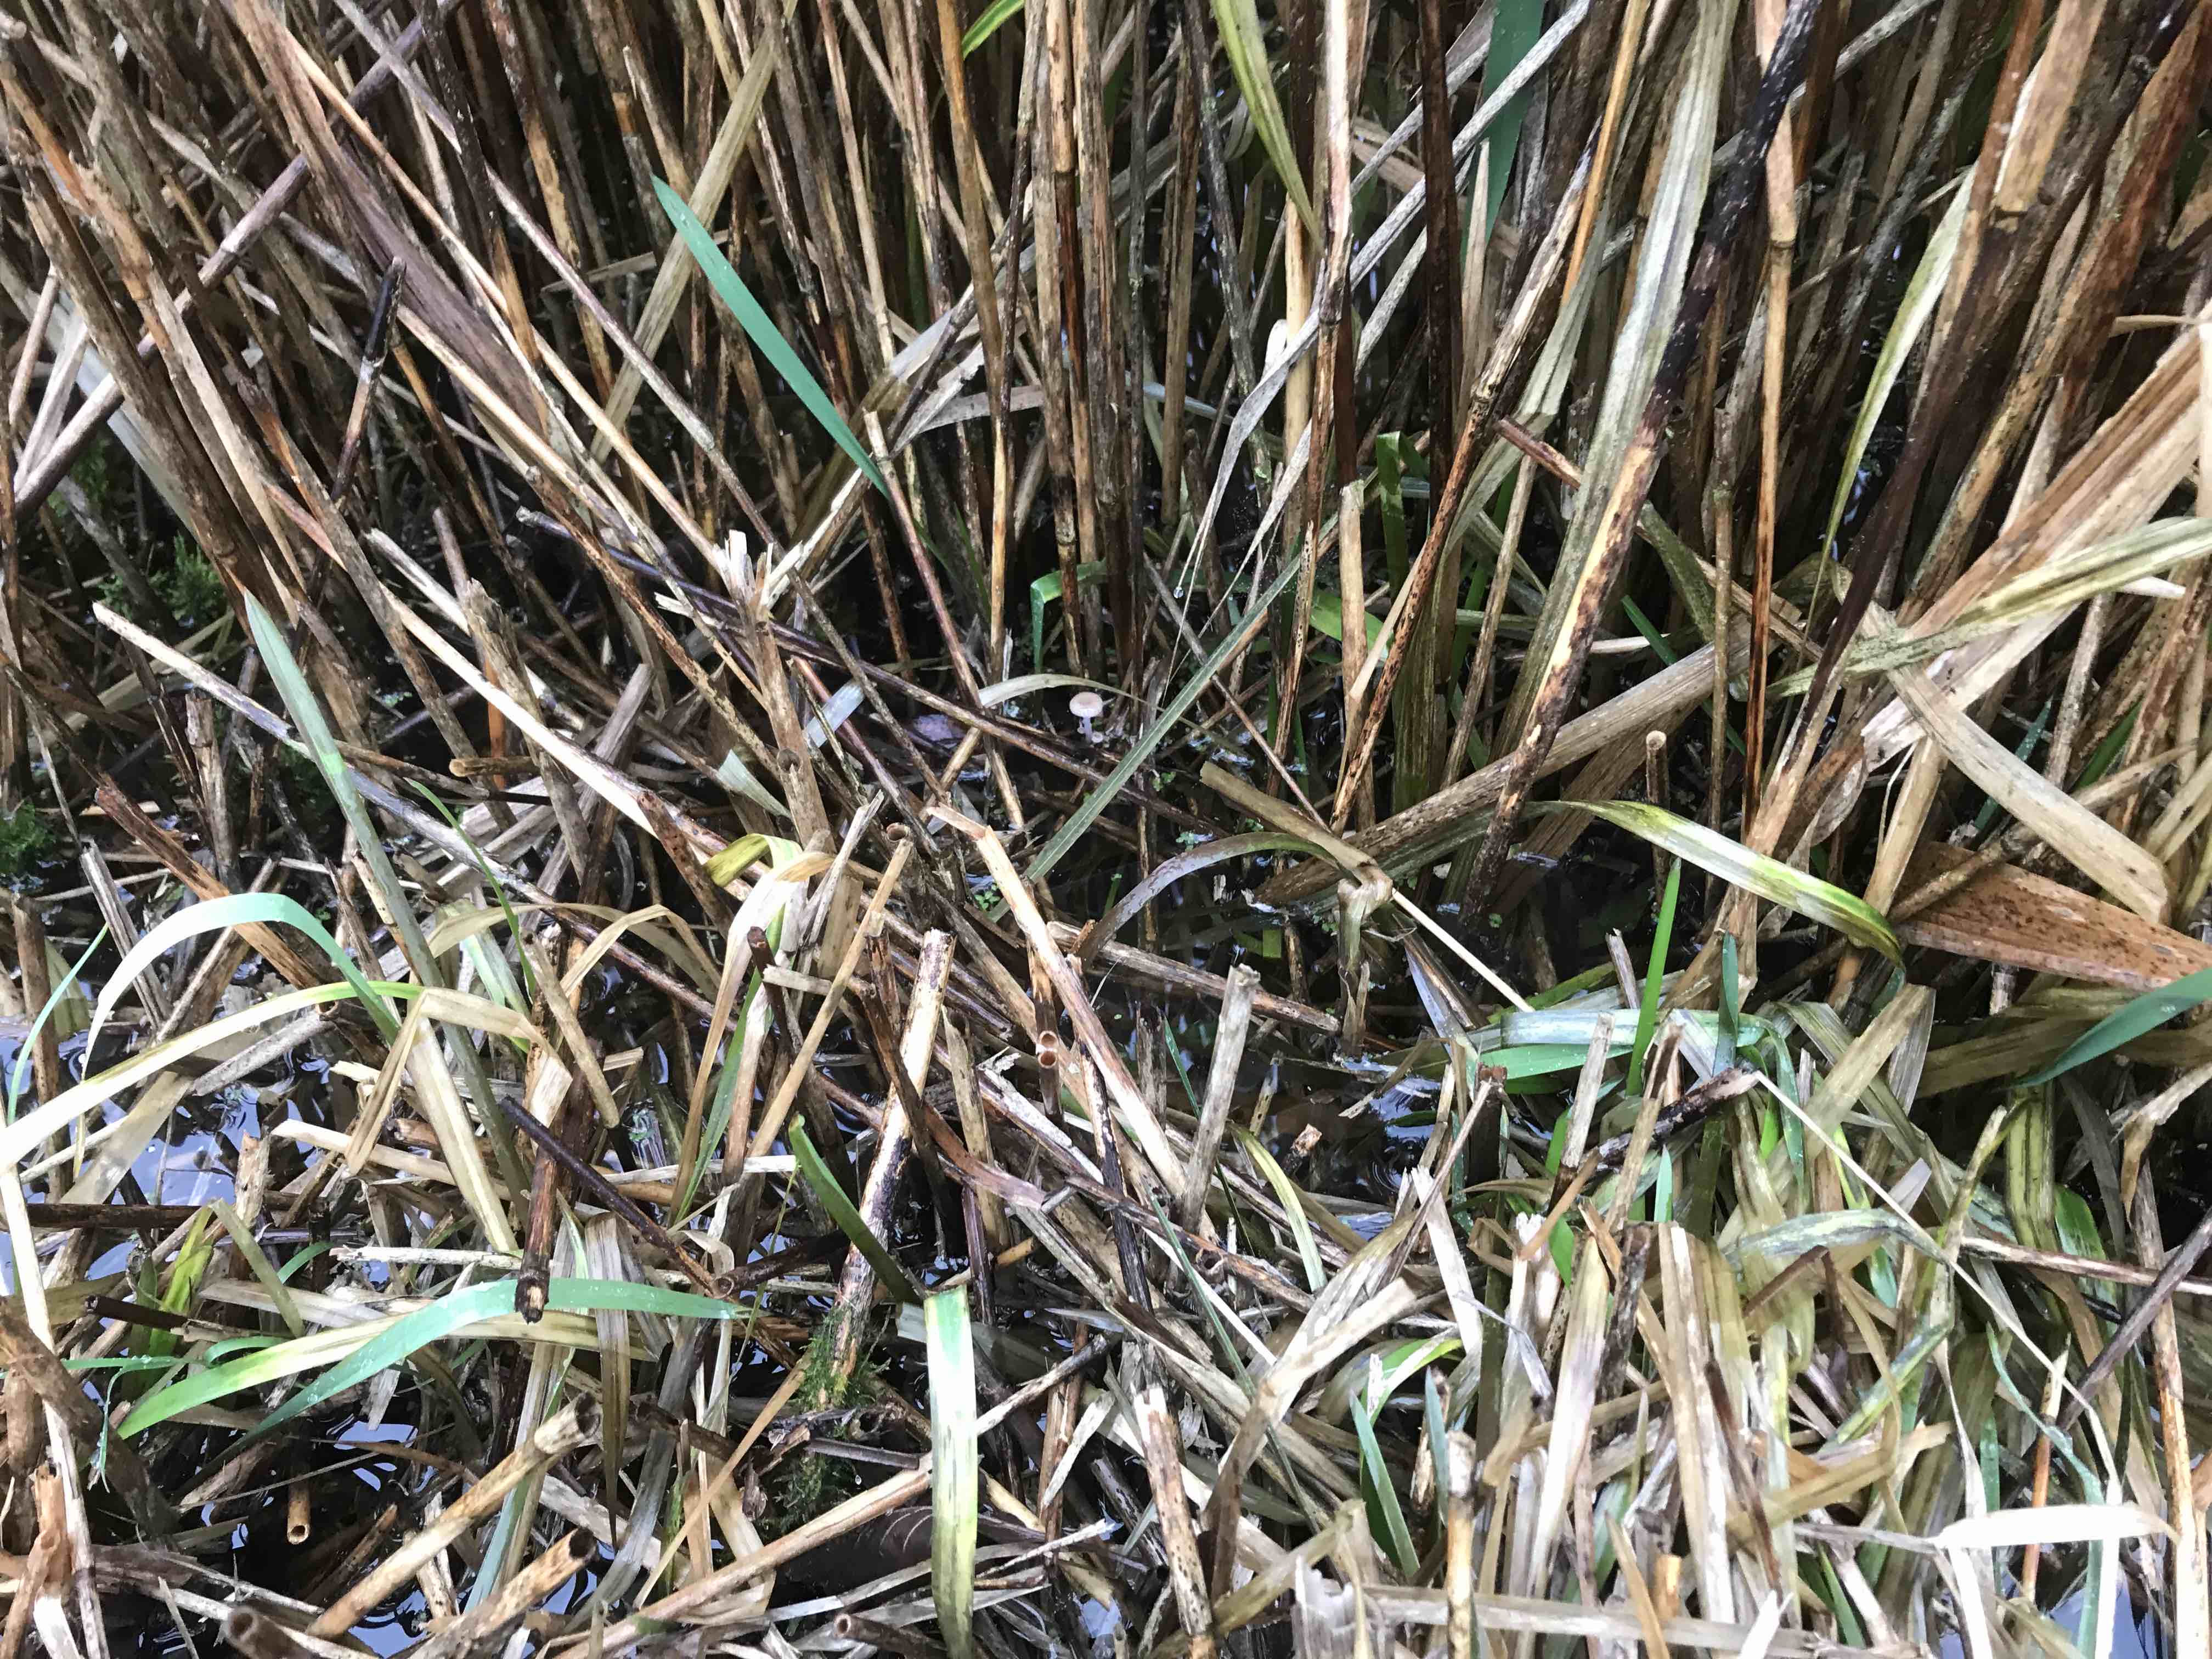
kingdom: Fungi
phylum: Basidiomycota
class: Agaricomycetes
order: Agaricales
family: Mycenaceae
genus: Mycena
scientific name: Mycena belliae
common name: tagrørs-huesvamp
